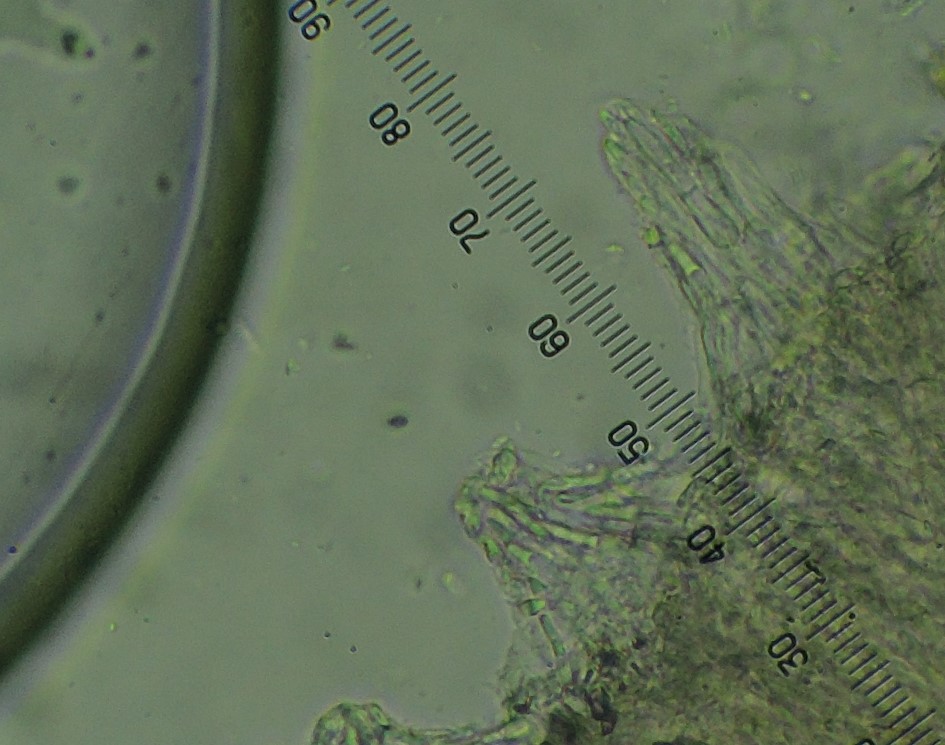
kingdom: Fungi
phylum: Ascomycota
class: Leotiomycetes
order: Helotiales
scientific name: Helotiales
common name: stilkskiveordenen
